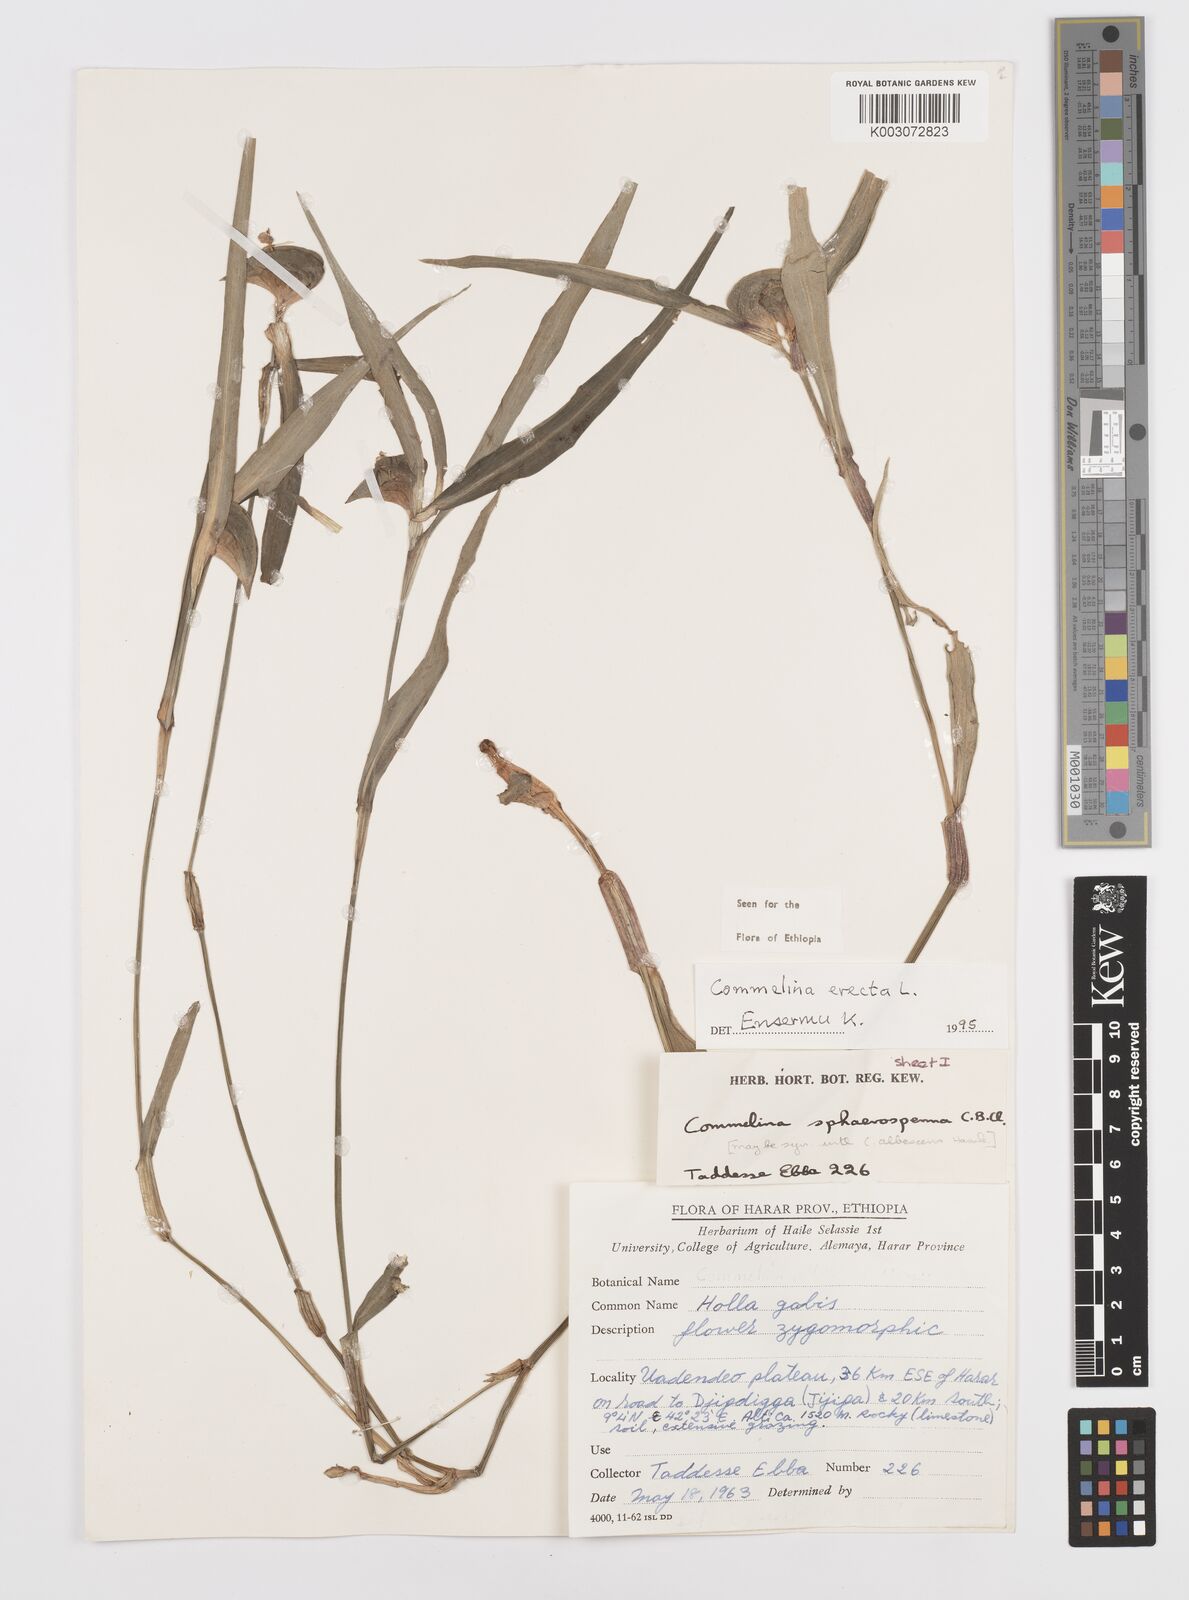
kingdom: Plantae
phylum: Tracheophyta
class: Liliopsida
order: Commelinales
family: Commelinaceae
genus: Commelina
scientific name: Commelina erecta
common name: Blousel blommetjie
